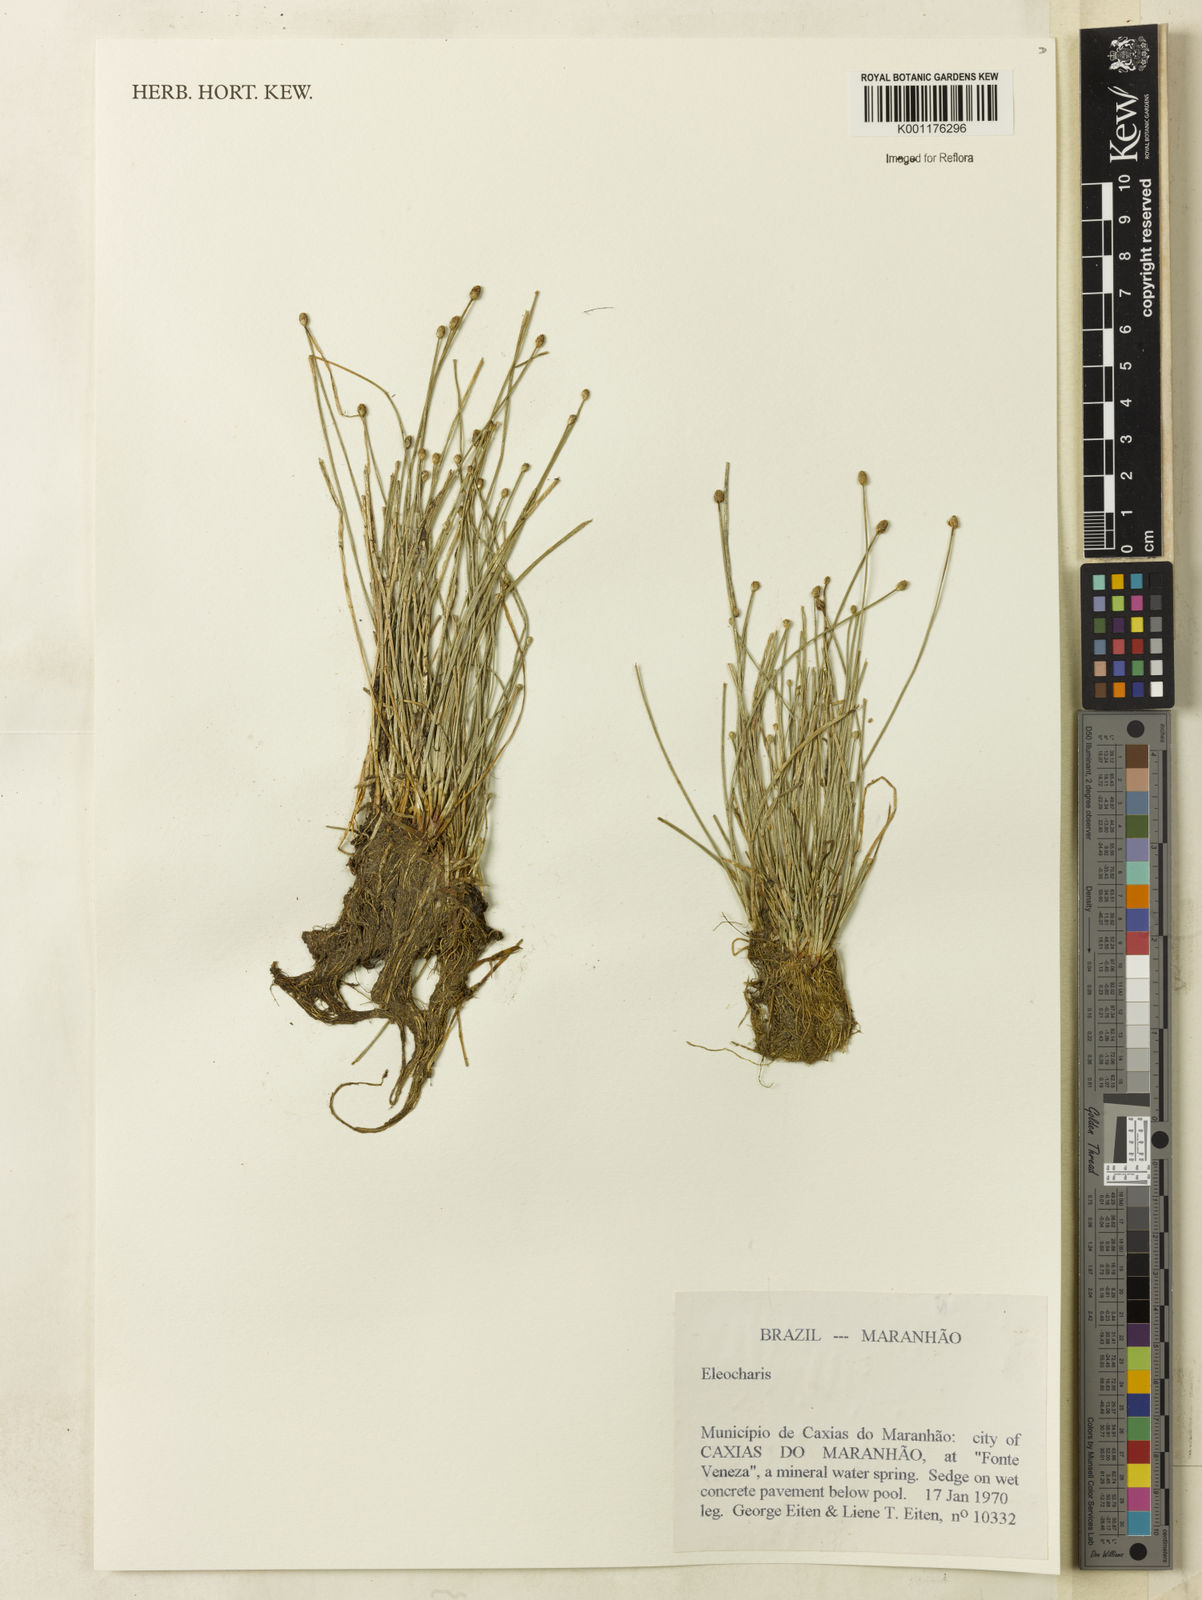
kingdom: Plantae
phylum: Tracheophyta
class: Liliopsida
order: Poales
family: Cyperaceae
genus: Eleocharis
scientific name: Eleocharis
